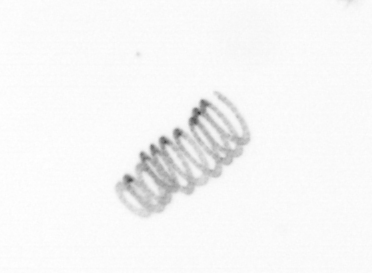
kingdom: Chromista
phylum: Ochrophyta
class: Bacillariophyceae
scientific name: Bacillariophyceae
